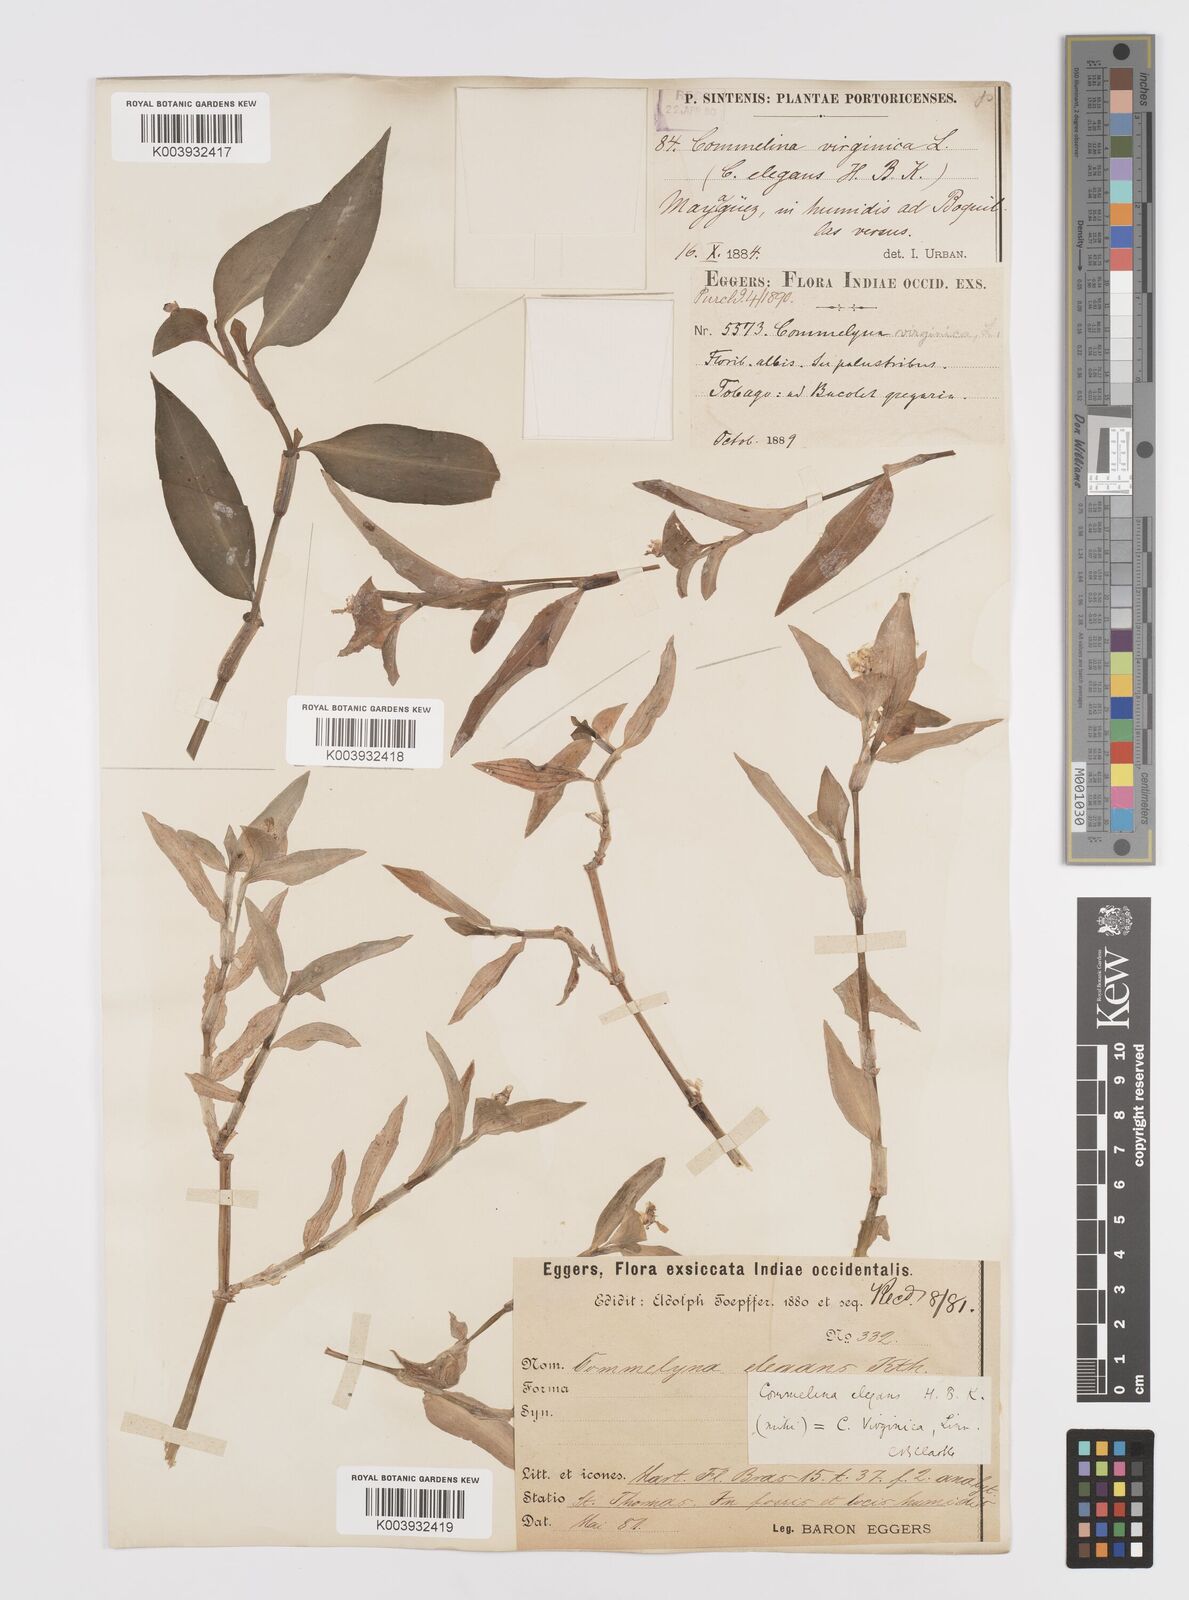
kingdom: Plantae
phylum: Tracheophyta
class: Liliopsida
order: Commelinales
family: Commelinaceae
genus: Commelina
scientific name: Commelina erecta
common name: Blousel blommetjie
